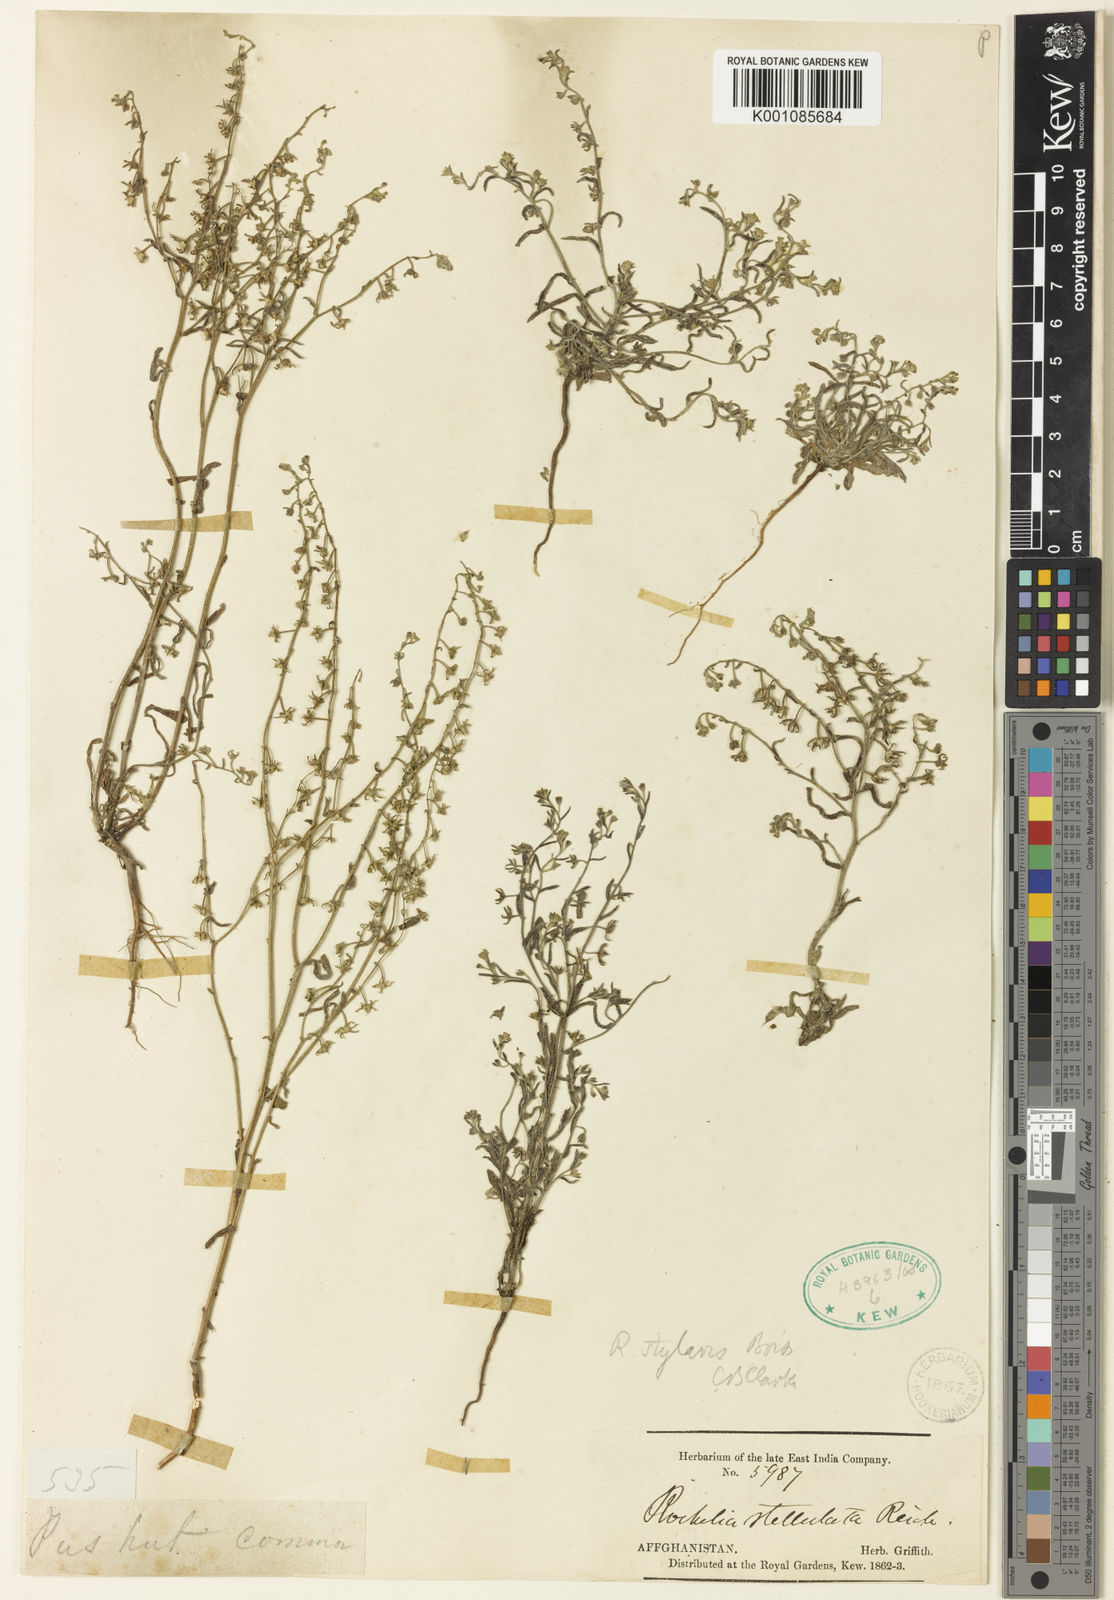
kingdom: Plantae
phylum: Tracheophyta
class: Magnoliopsida
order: Boraginales
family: Boraginaceae
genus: Anchusa
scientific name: Anchusa
